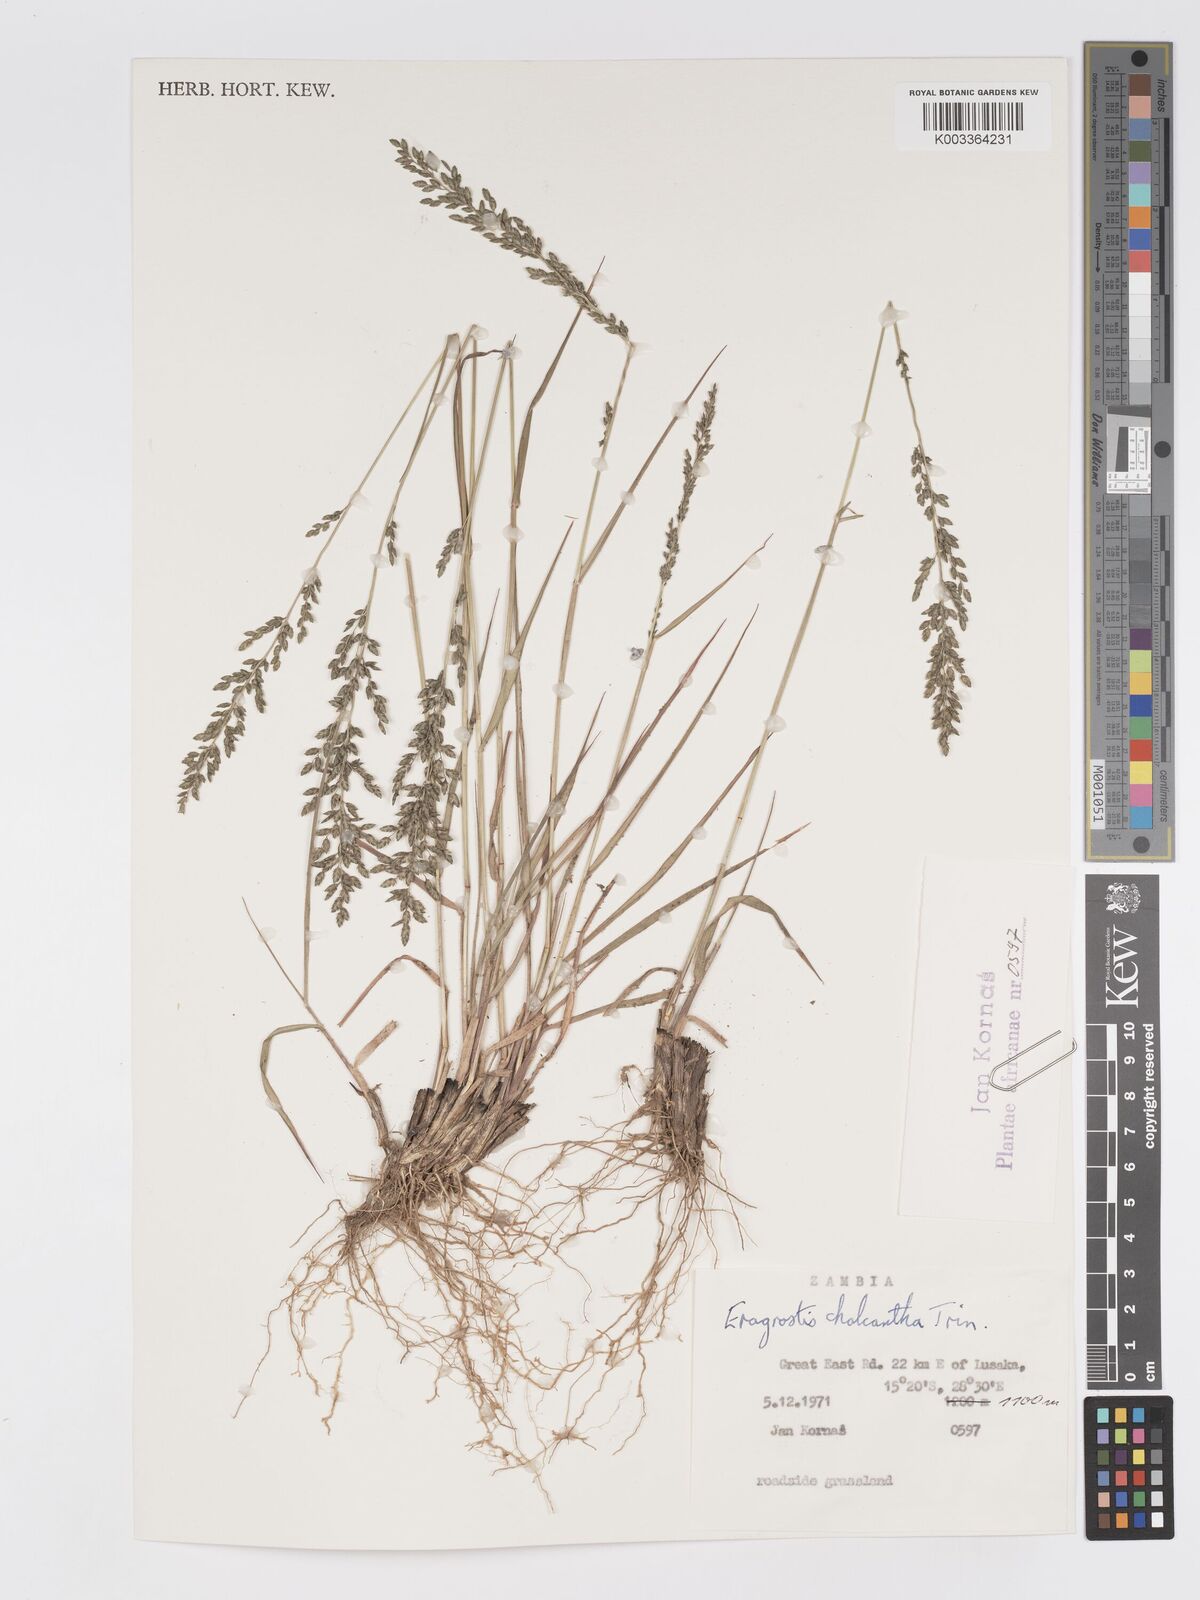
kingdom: Plantae
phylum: Tracheophyta
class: Liliopsida
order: Poales
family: Poaceae
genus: Eragrostis
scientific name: Eragrostis racemosa
